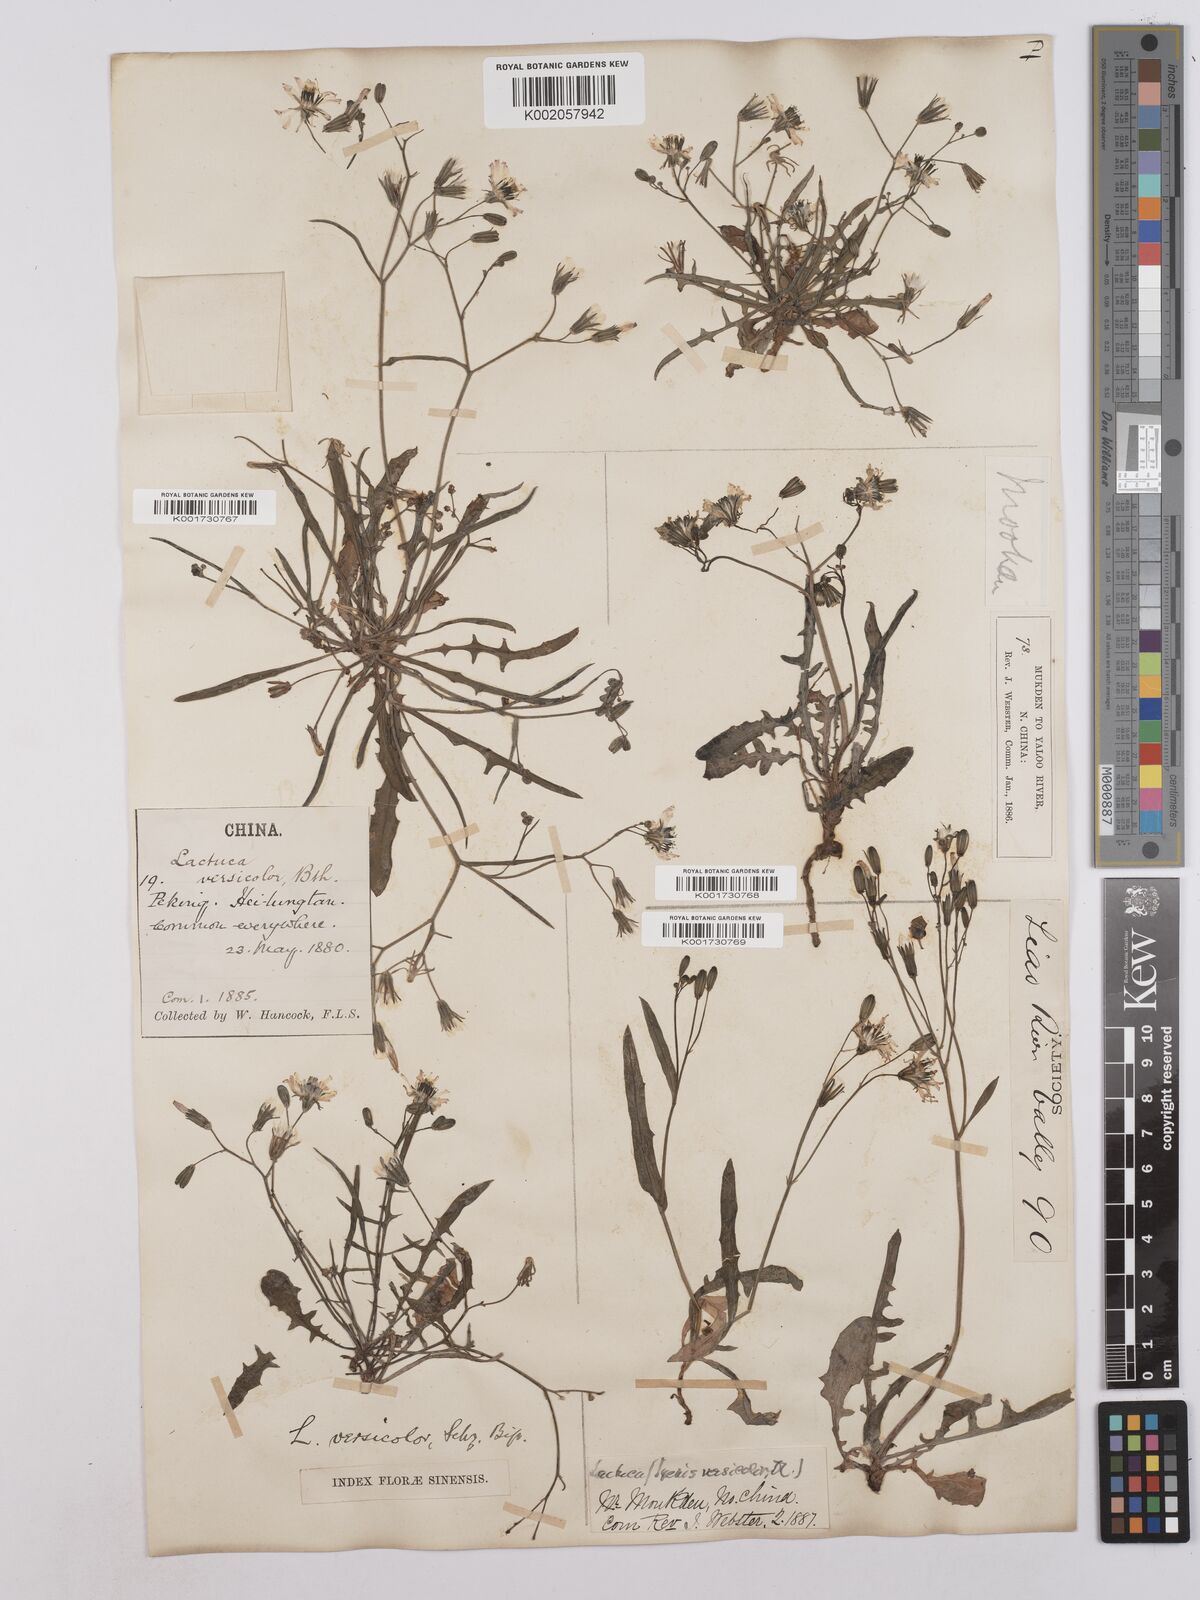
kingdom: Plantae
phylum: Tracheophyta
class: Magnoliopsida
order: Asterales
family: Asteraceae
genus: Ixeris
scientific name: Ixeris chinensis
